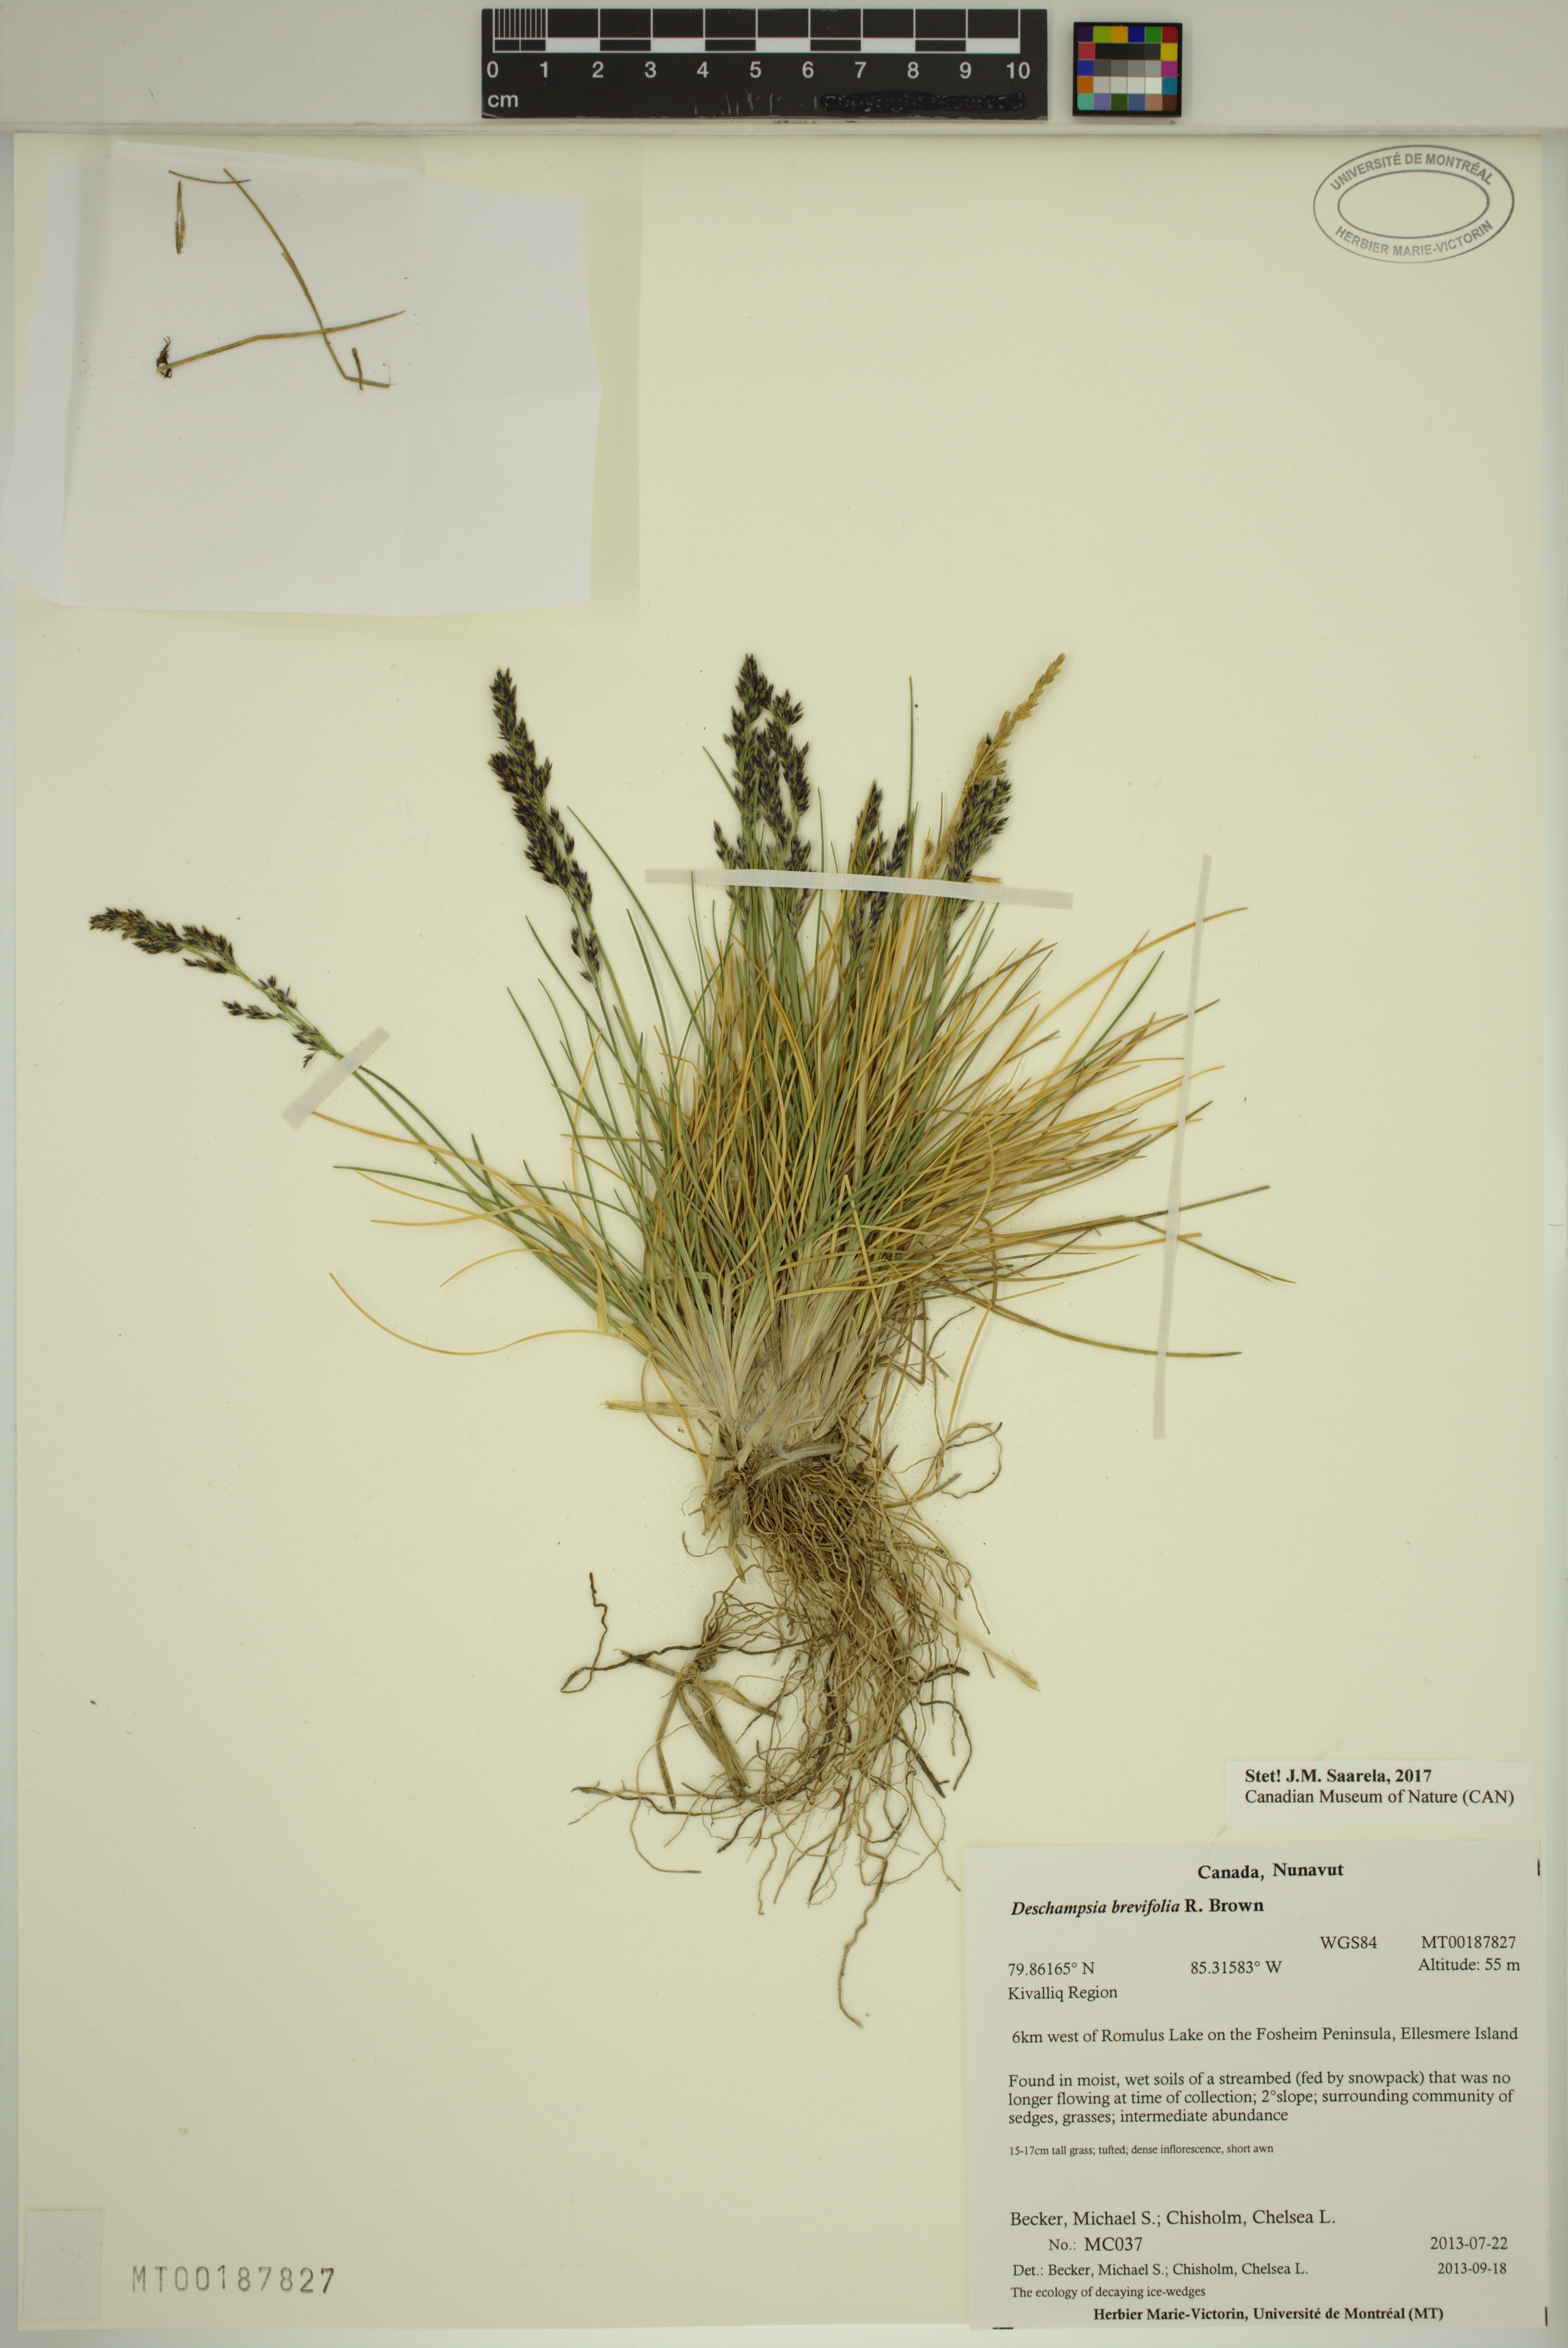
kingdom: Plantae
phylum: Tracheophyta
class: Liliopsida
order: Poales
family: Poaceae
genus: Deschampsia
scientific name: Deschampsia cespitosa
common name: Tufted hair-grass
